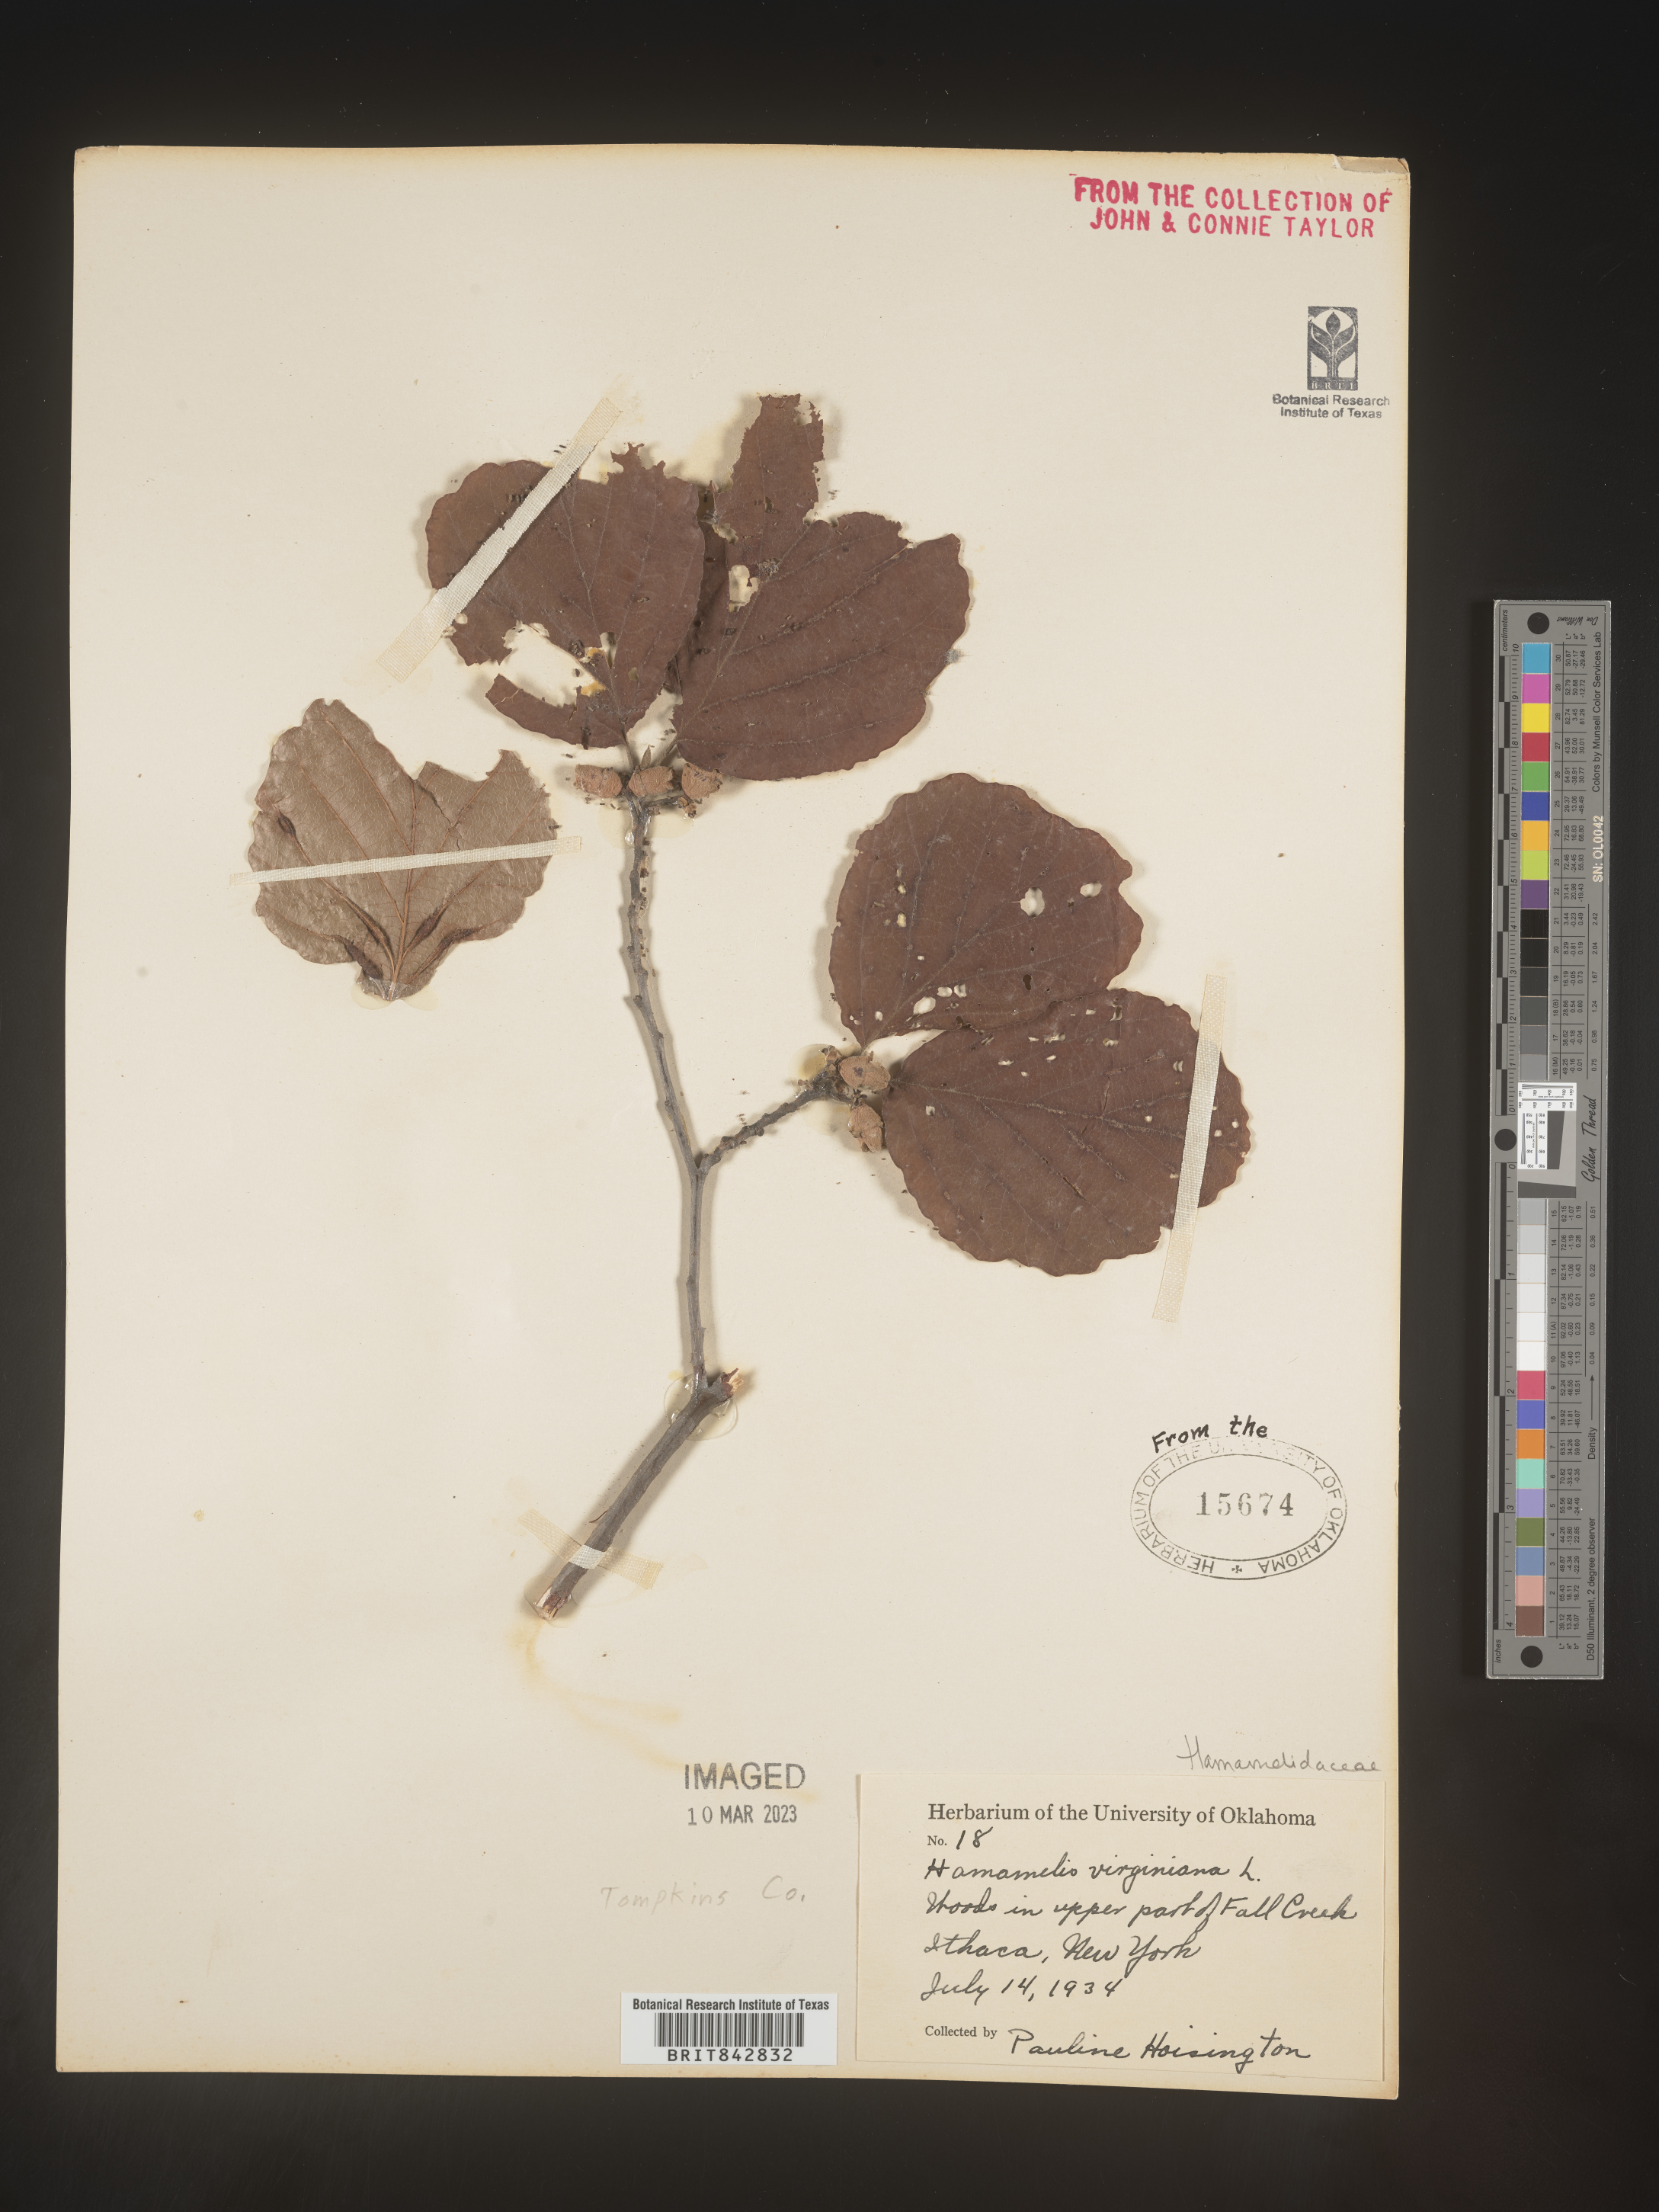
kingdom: Plantae
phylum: Tracheophyta
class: Magnoliopsida
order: Saxifragales
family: Hamamelidaceae
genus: Hamamelis
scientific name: Hamamelis virginiana
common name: Witch-hazel
